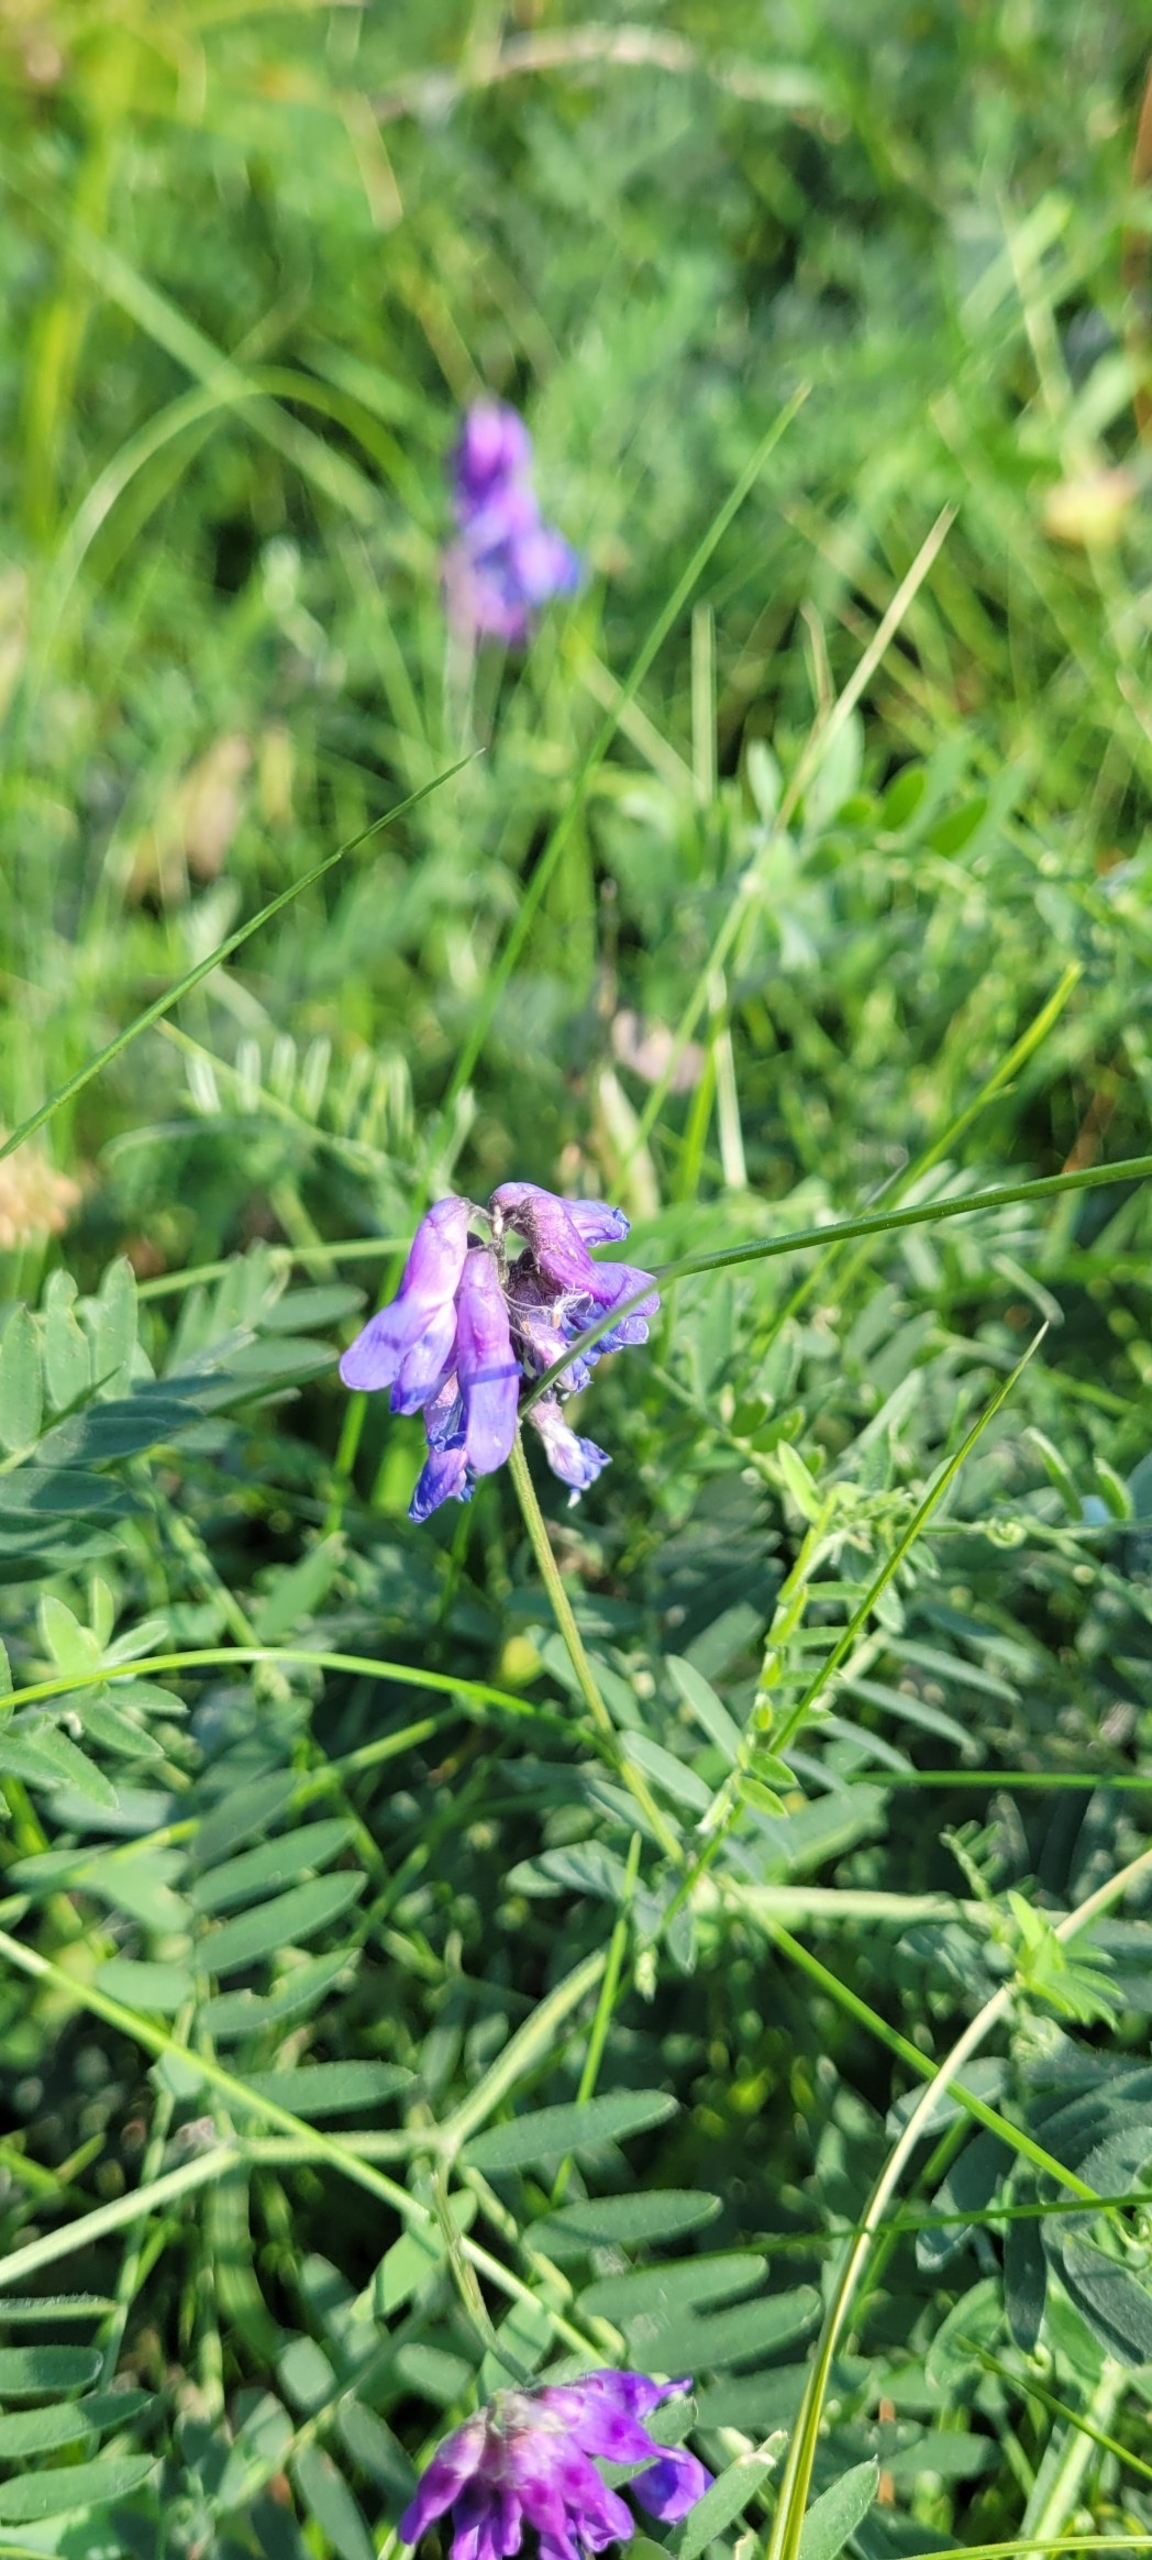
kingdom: Plantae
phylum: Tracheophyta
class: Magnoliopsida
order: Fabales
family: Fabaceae
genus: Vicia
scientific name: Vicia cracca
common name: Muse-vikke
